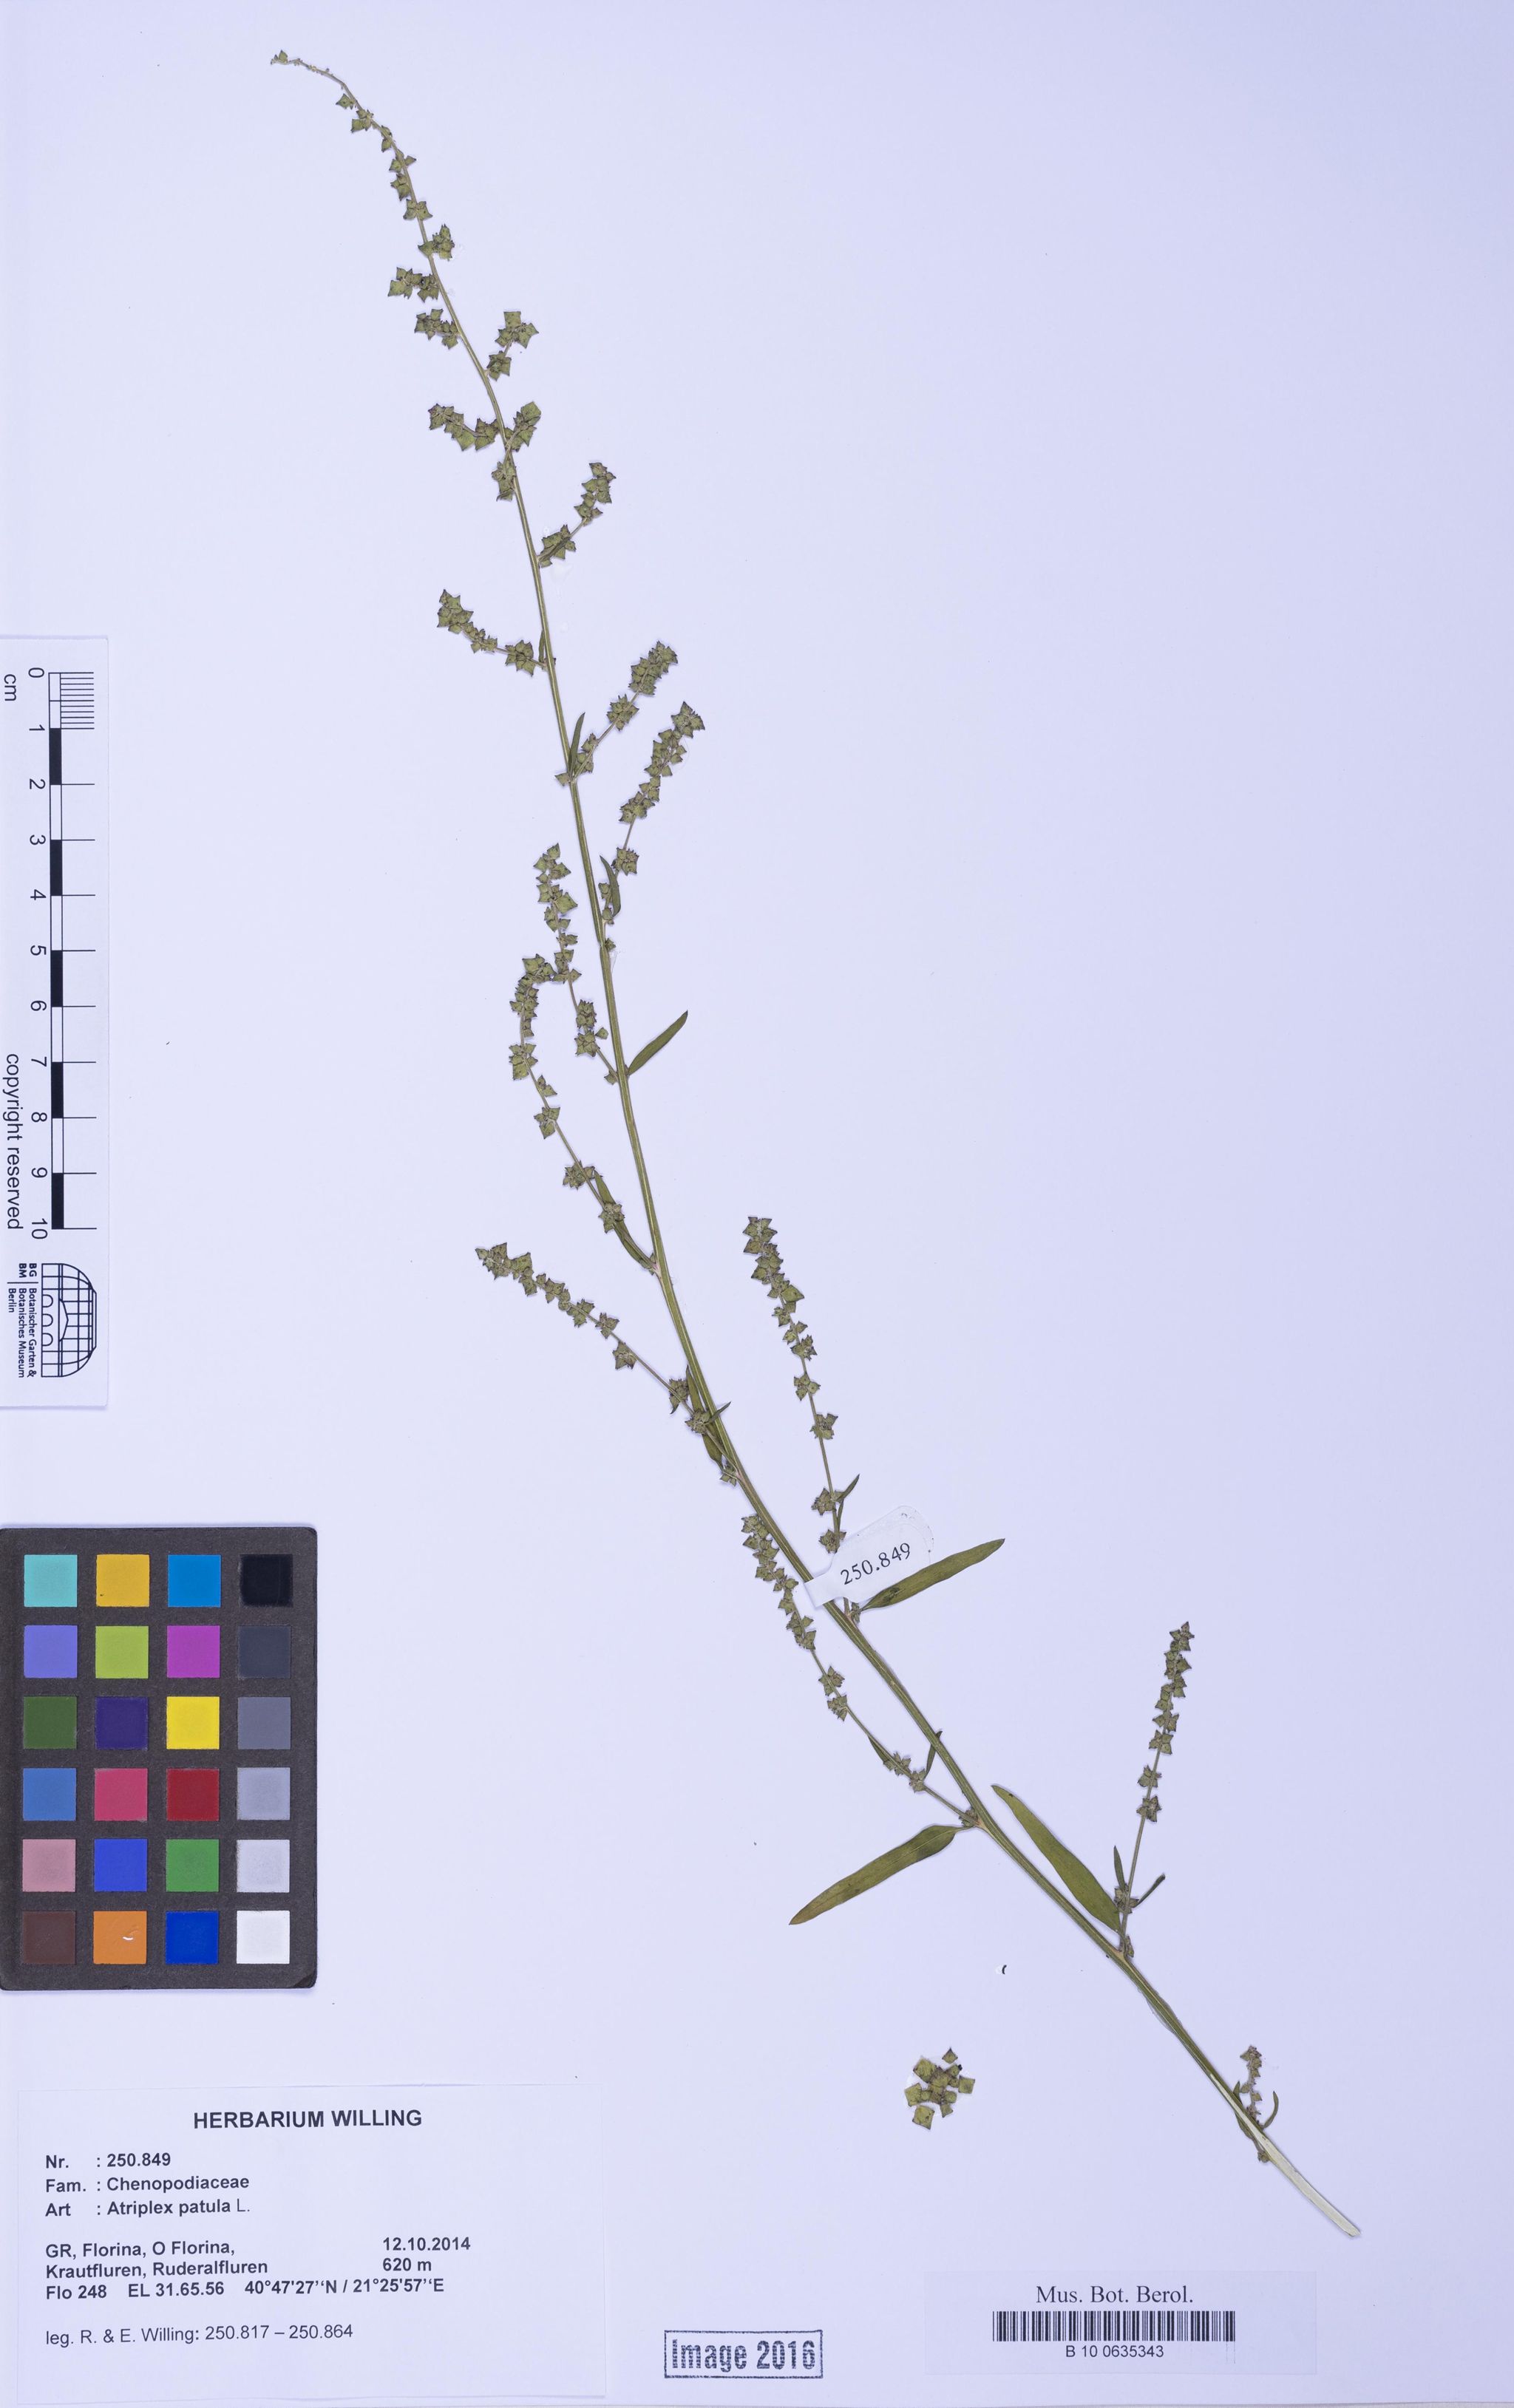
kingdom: Plantae
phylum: Tracheophyta
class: Magnoliopsida
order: Caryophyllales
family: Amaranthaceae
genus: Atriplex
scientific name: Atriplex patula
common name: Common orache
